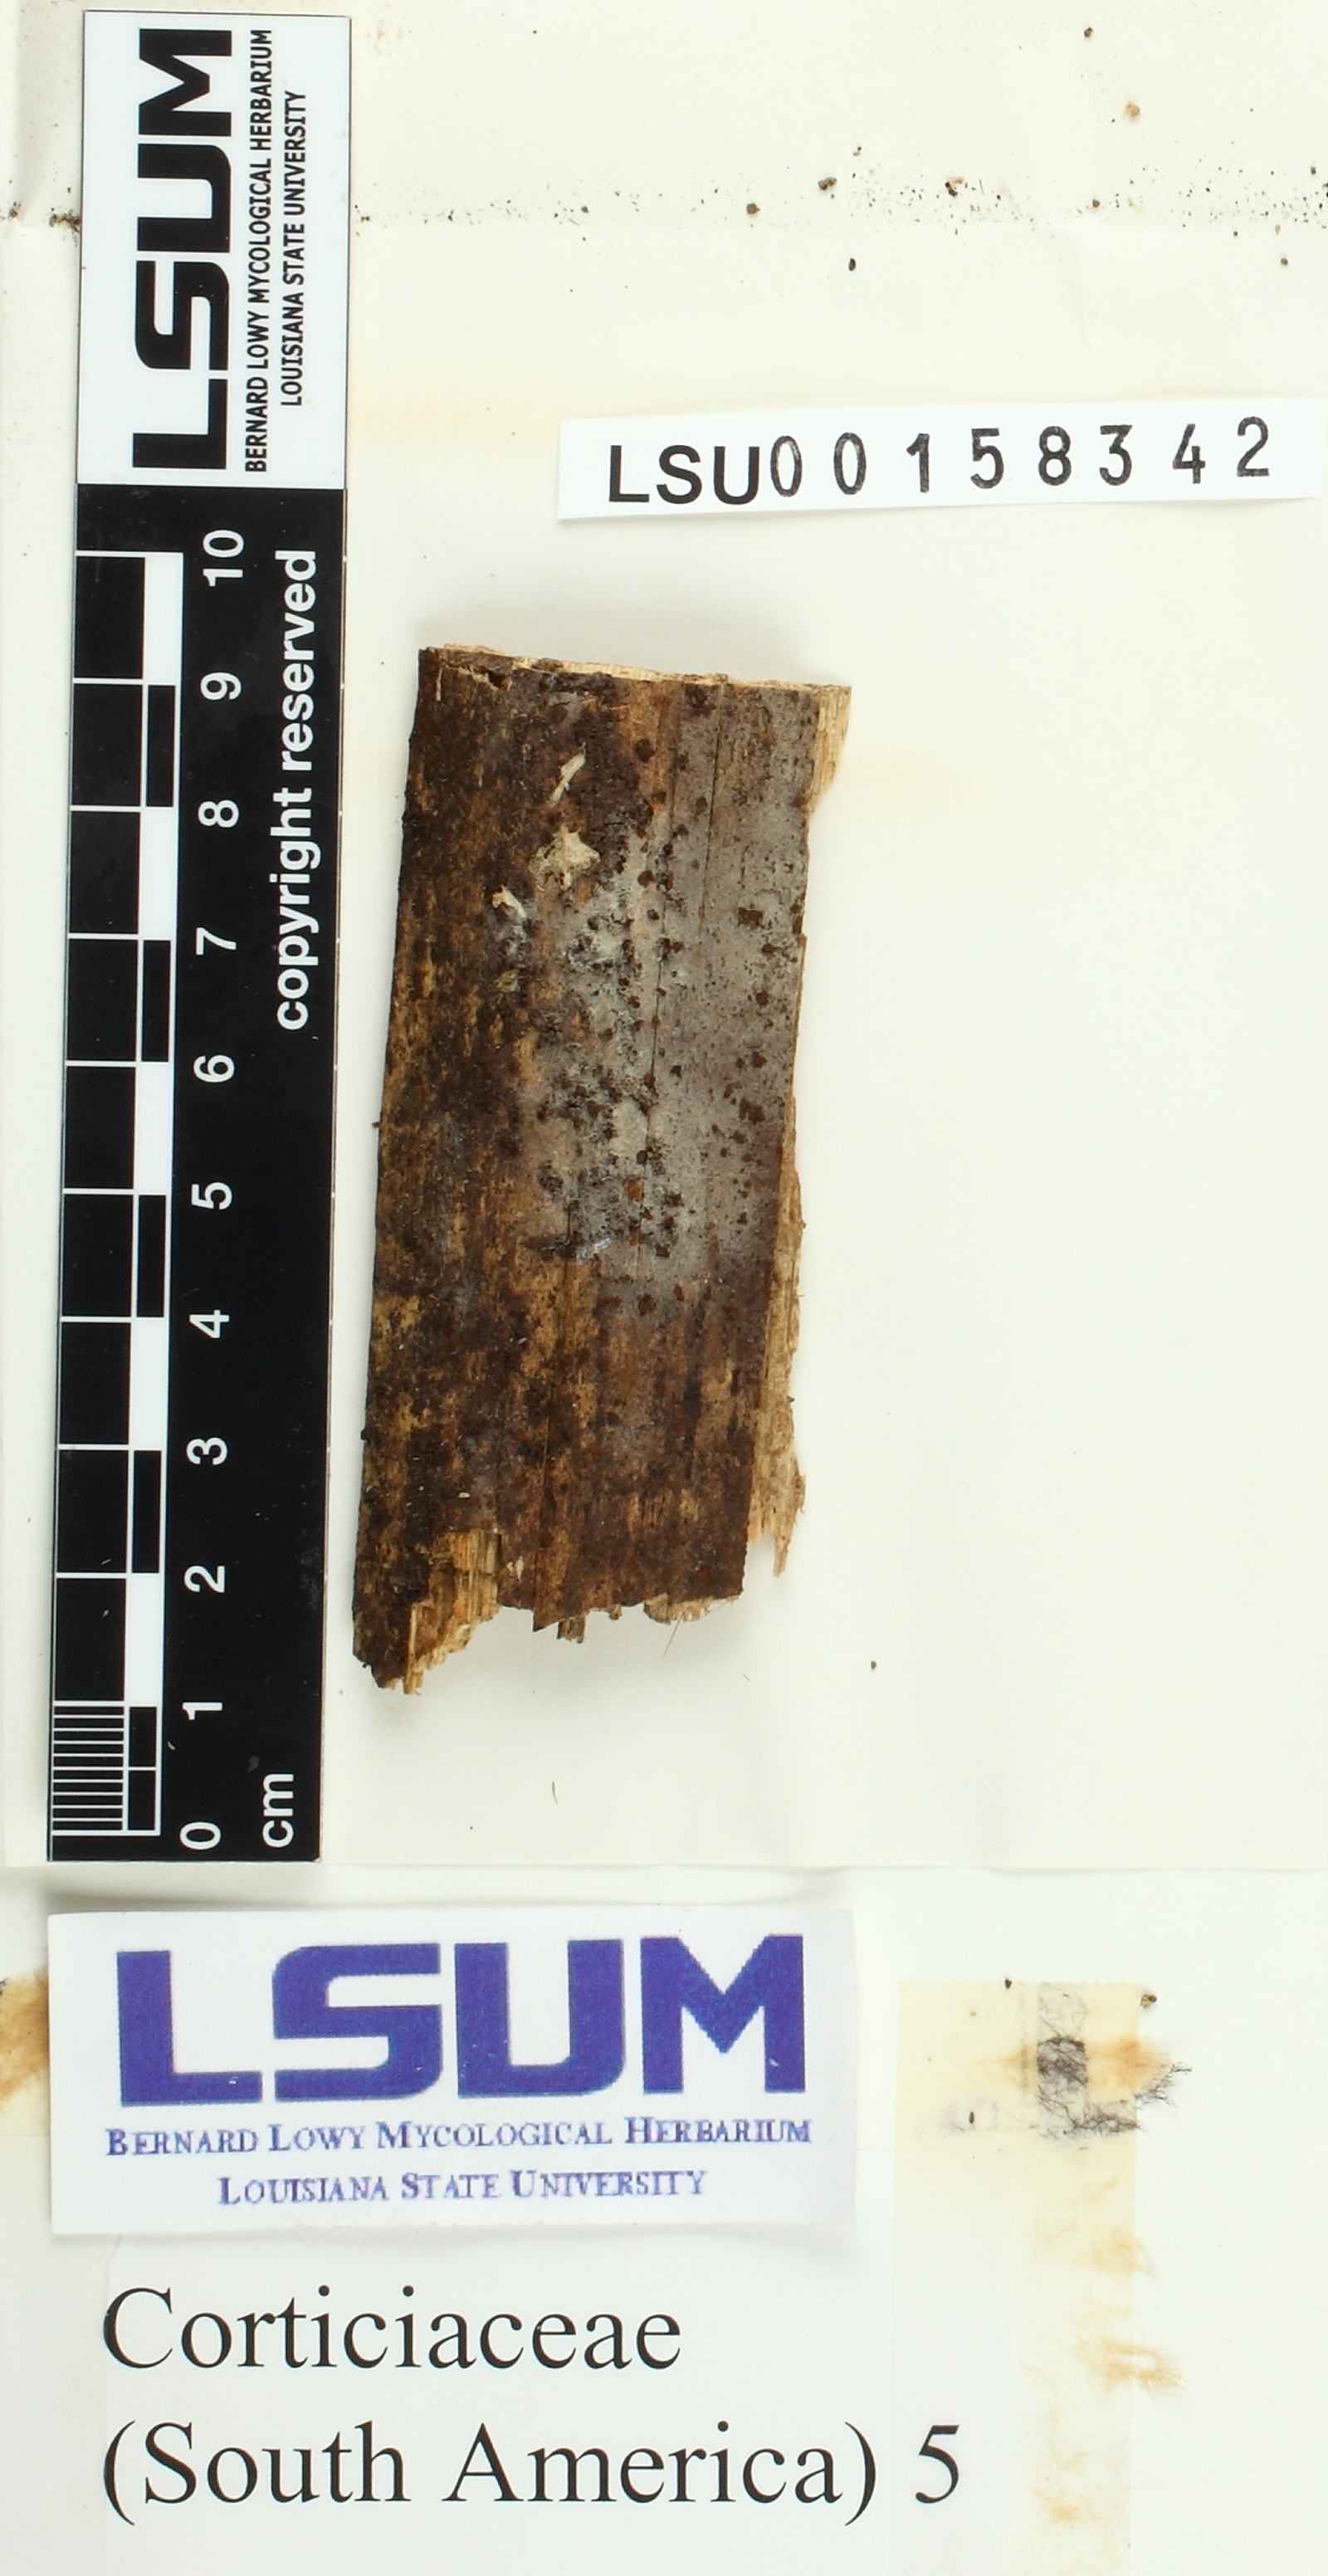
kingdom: Fungi
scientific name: Fungi
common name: Fungi
